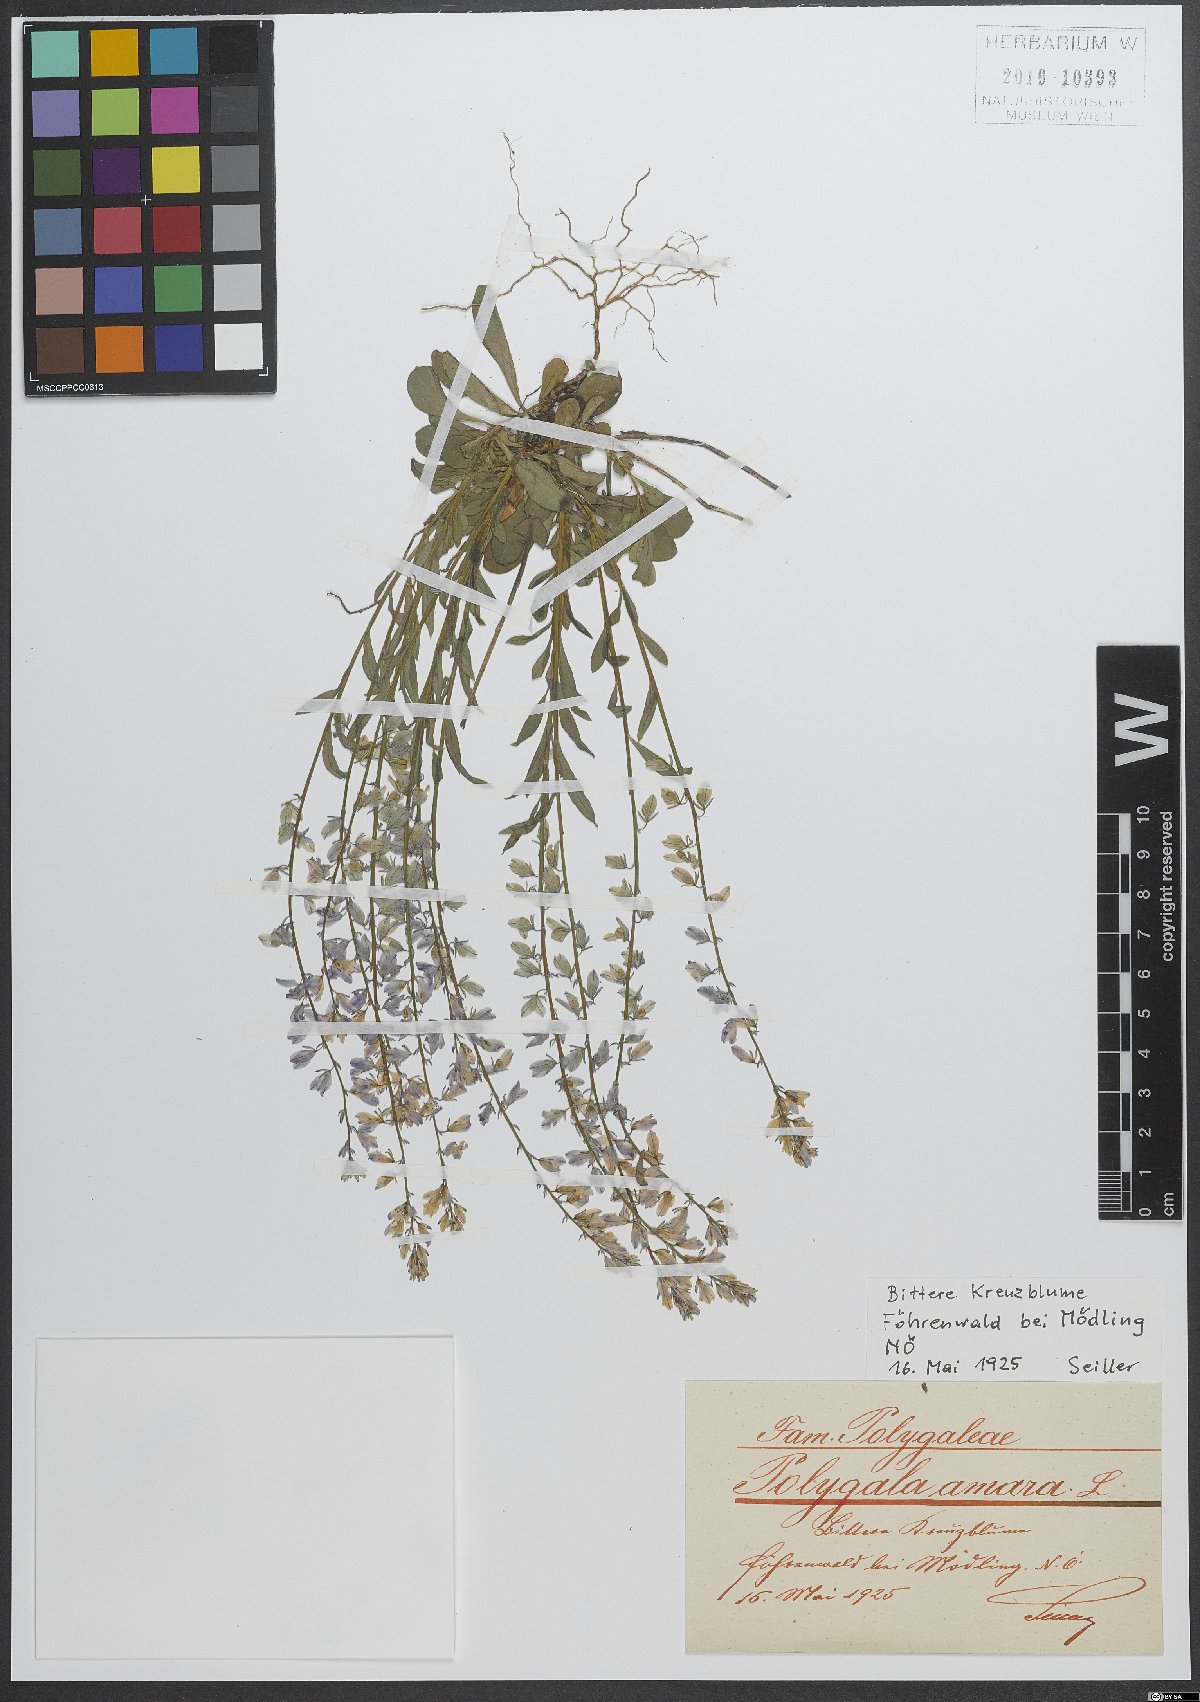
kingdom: Plantae
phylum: Tracheophyta
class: Magnoliopsida
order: Fabales
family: Polygalaceae
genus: Polygala
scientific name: Polygala amara
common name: Milkwort
